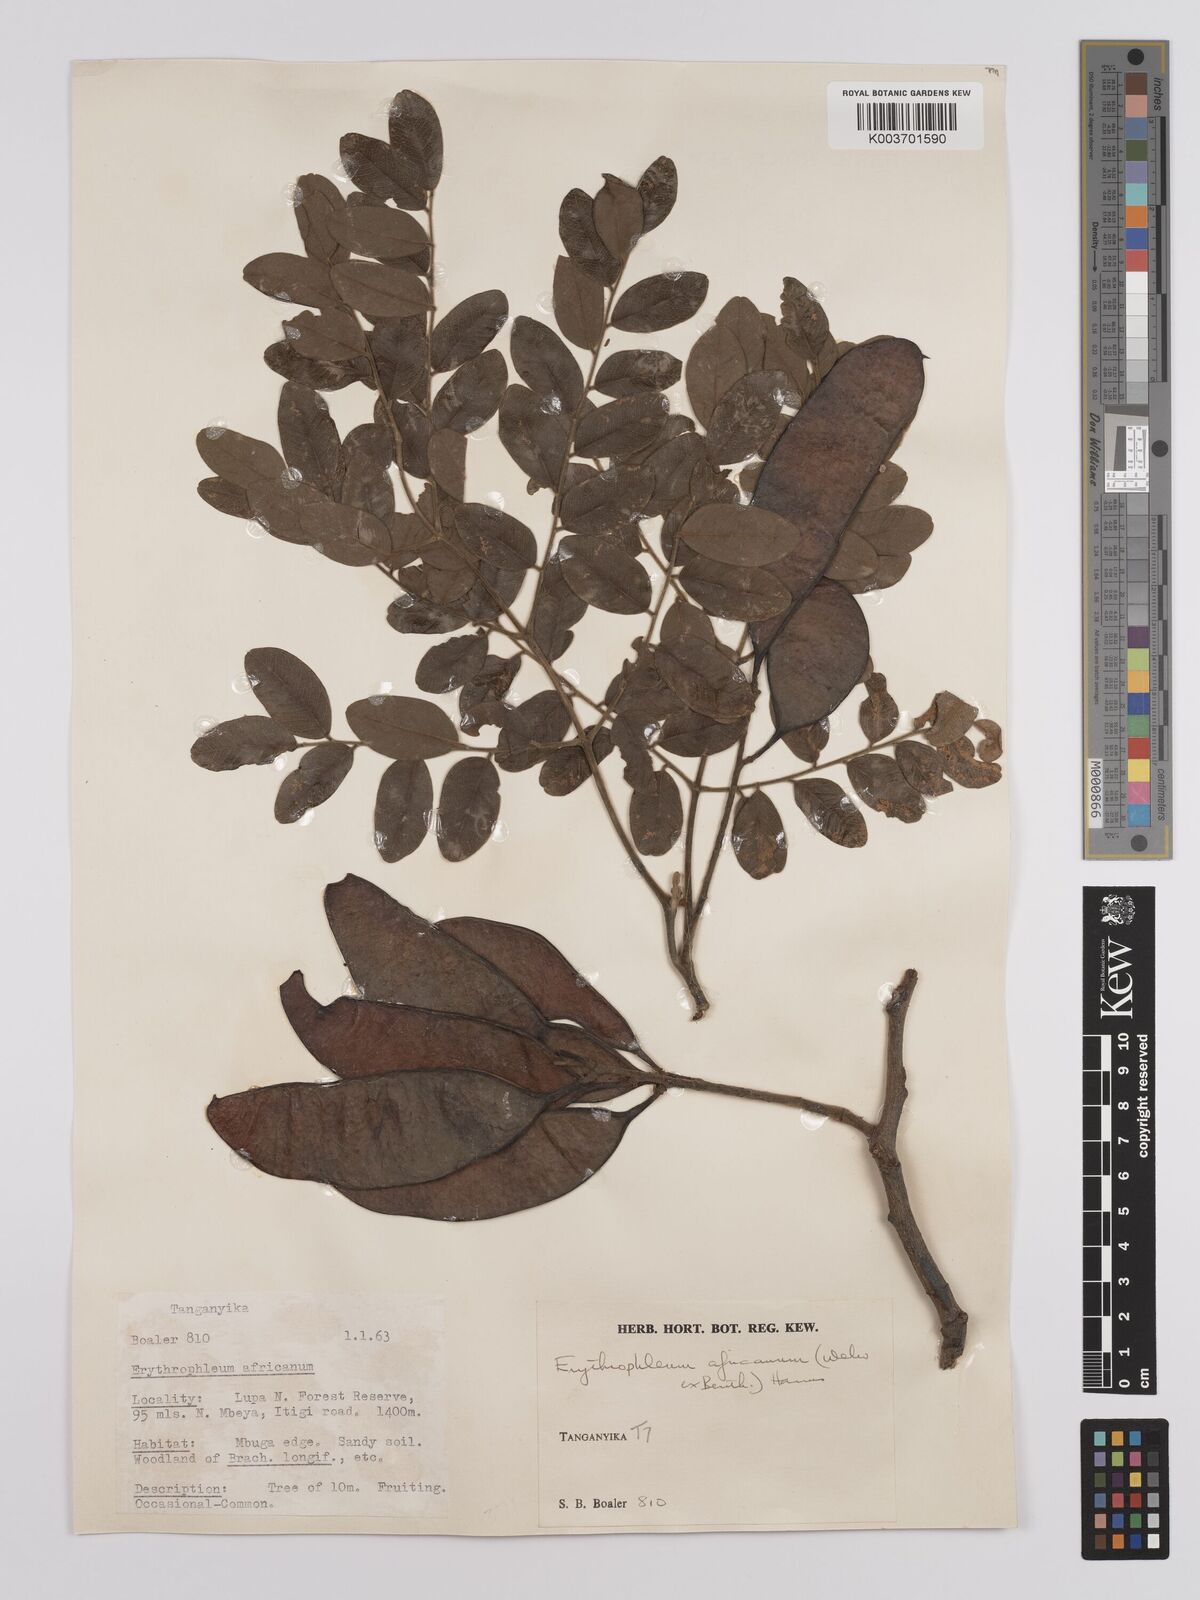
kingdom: Plantae
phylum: Tracheophyta
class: Magnoliopsida
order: Fabales
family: Fabaceae
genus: Erythrophleum
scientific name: Erythrophleum africanum
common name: African blackwood
